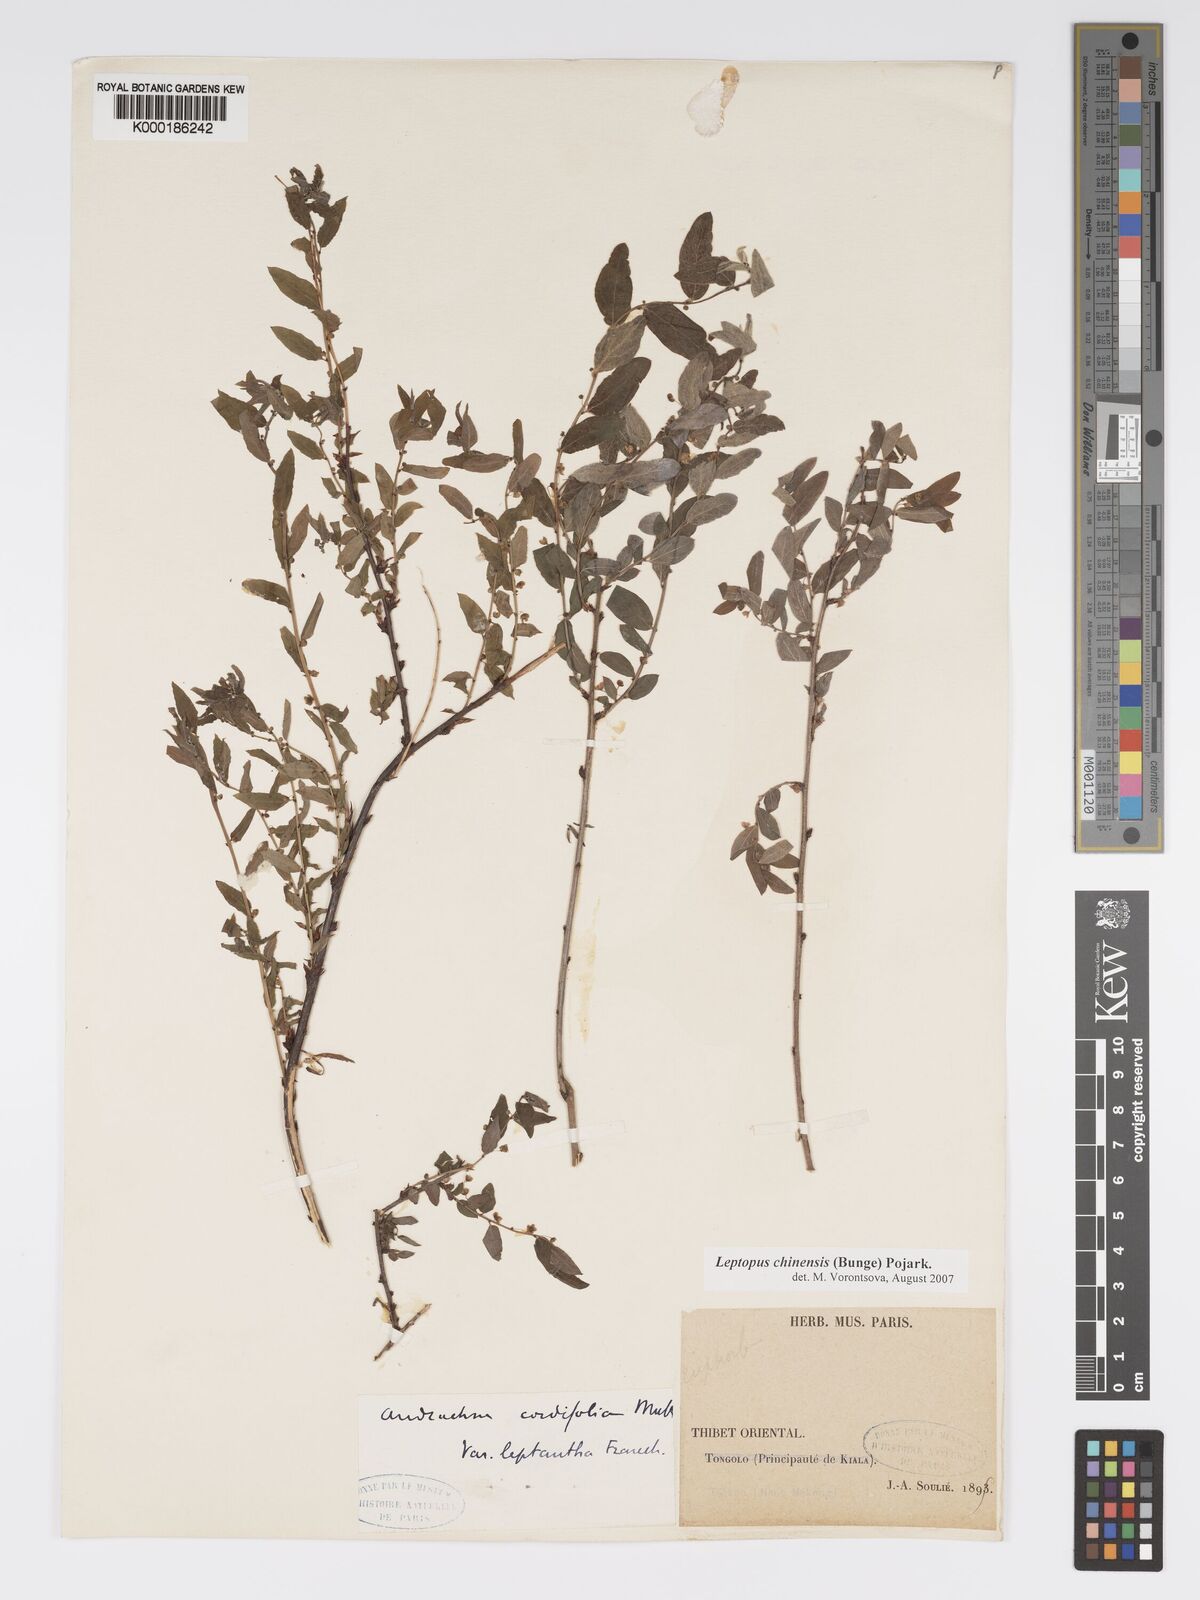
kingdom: Plantae
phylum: Tracheophyta
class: Magnoliopsida
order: Malpighiales
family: Phyllanthaceae
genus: Leptopus
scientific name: Leptopus cordifolius
